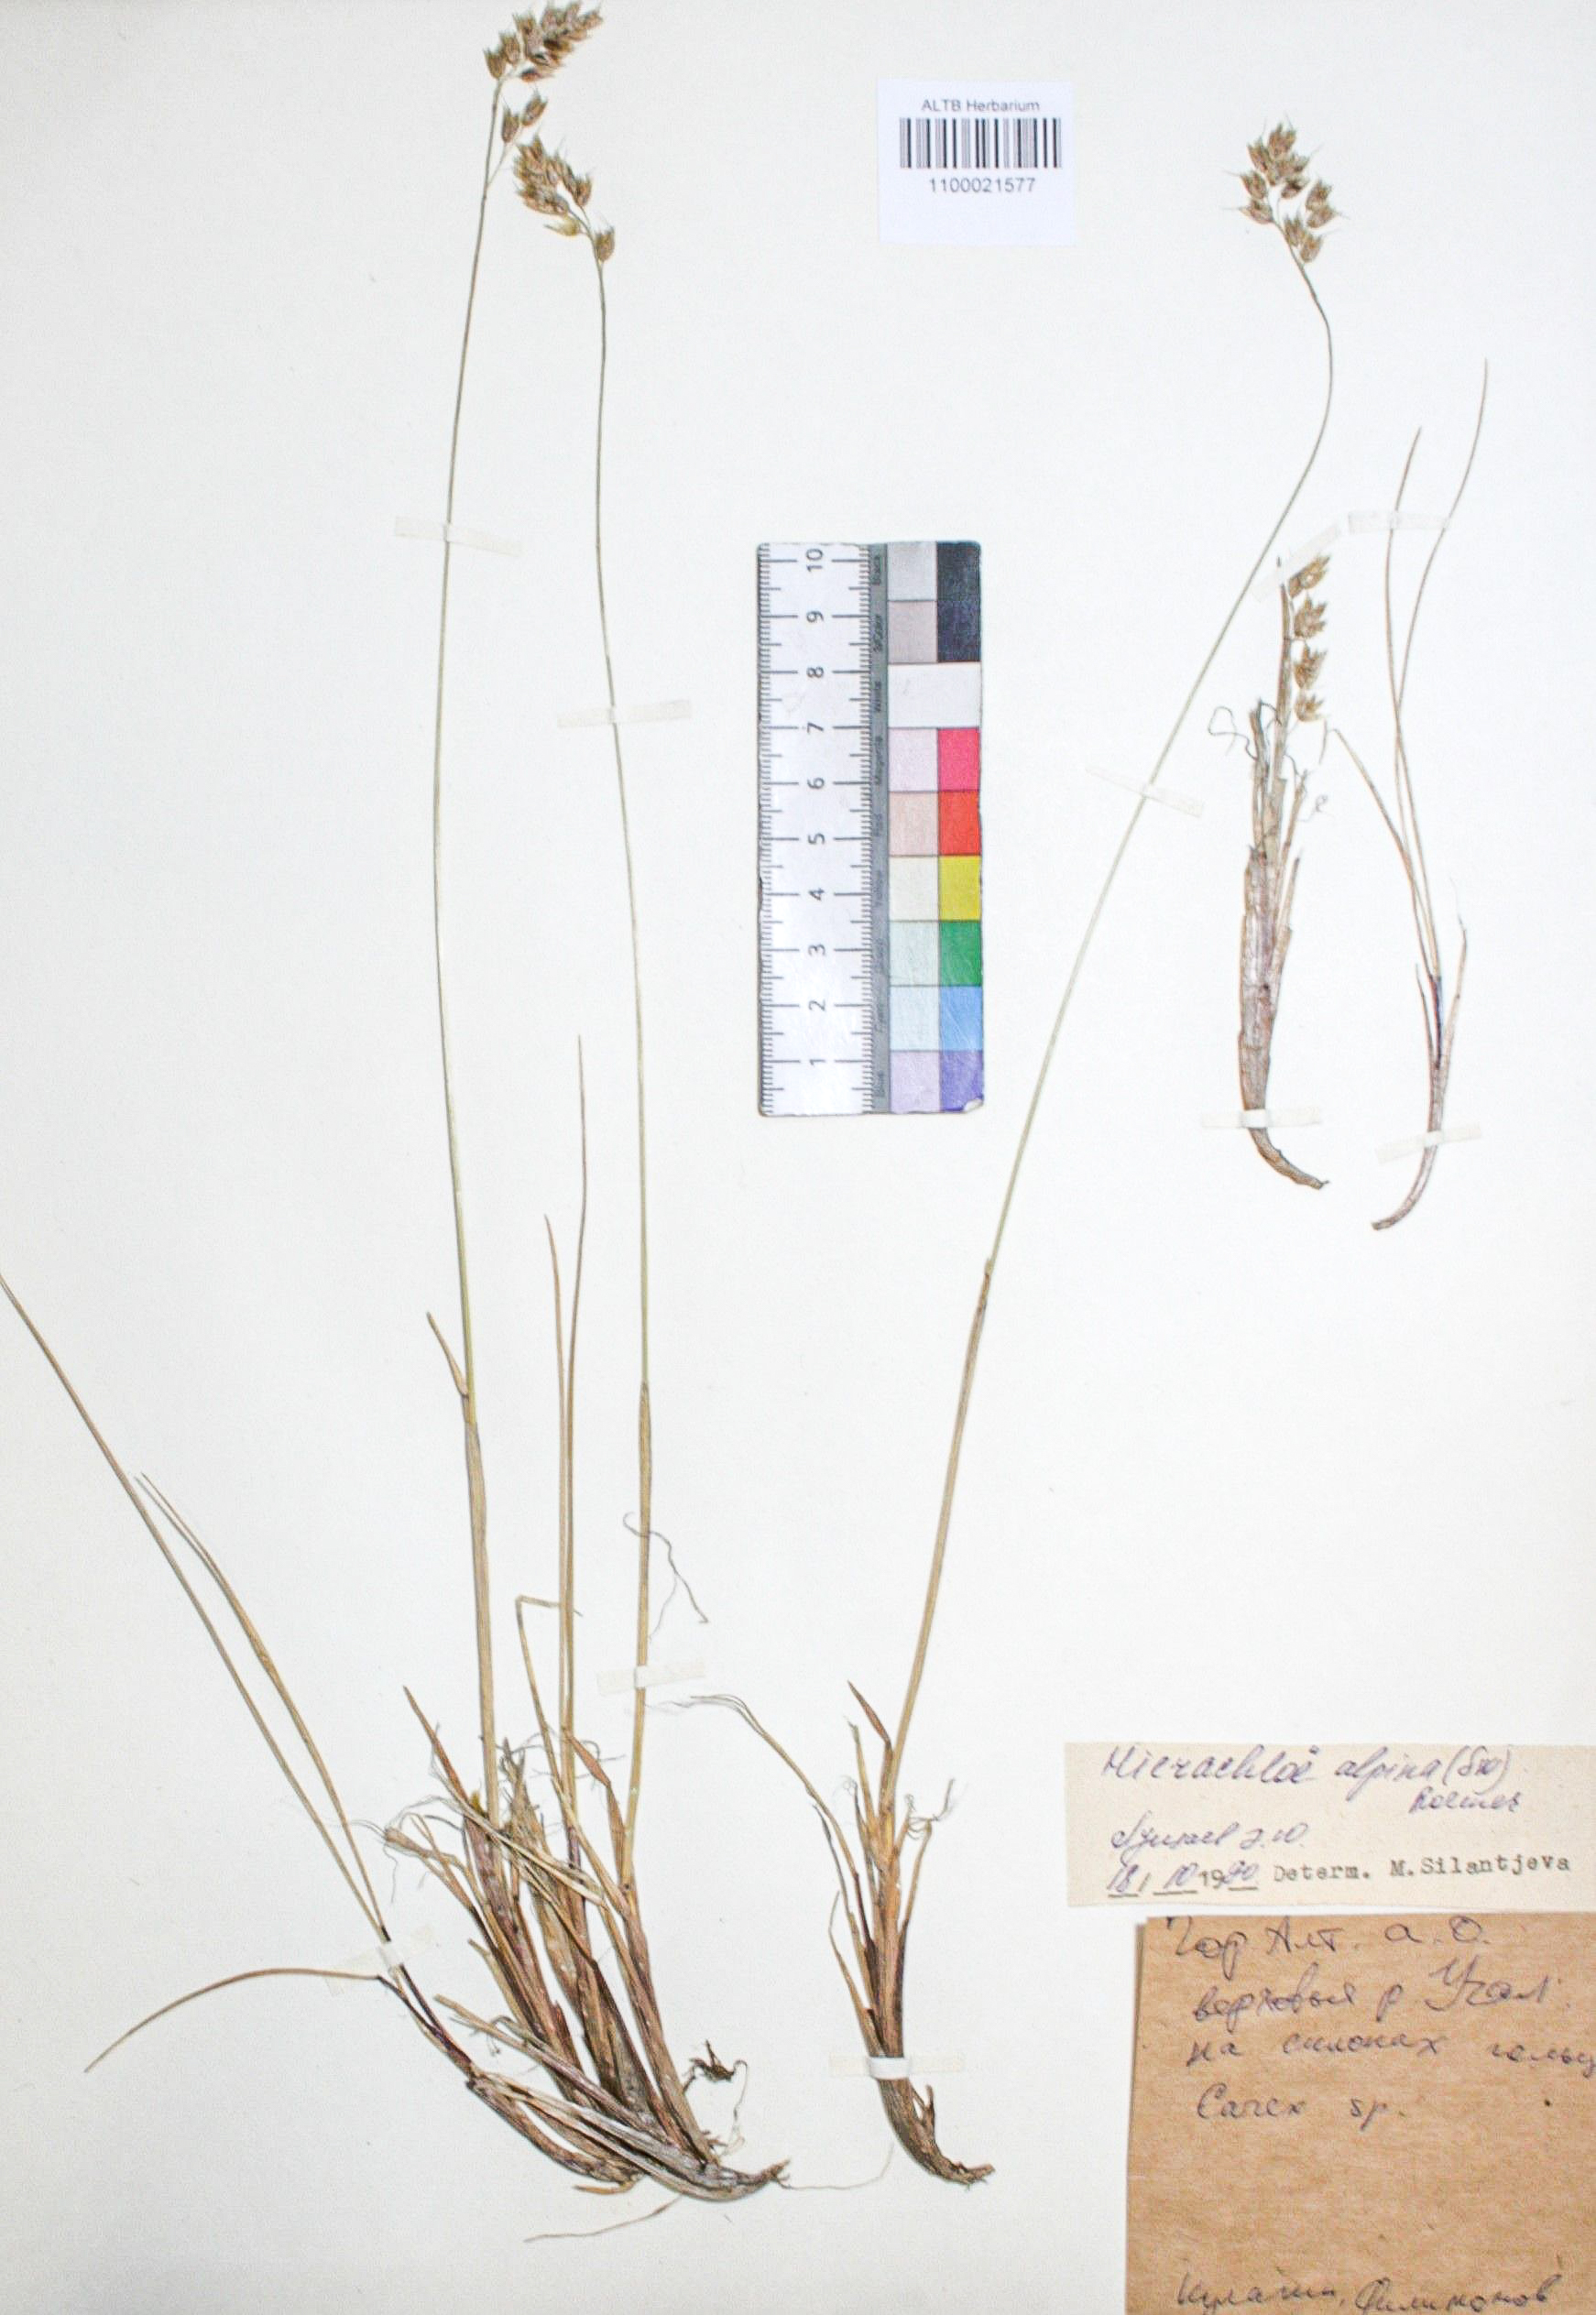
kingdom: Plantae
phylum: Tracheophyta
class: Liliopsida
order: Poales
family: Poaceae
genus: Anthoxanthum
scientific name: Anthoxanthum monticola
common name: Alpine sweetgrass
